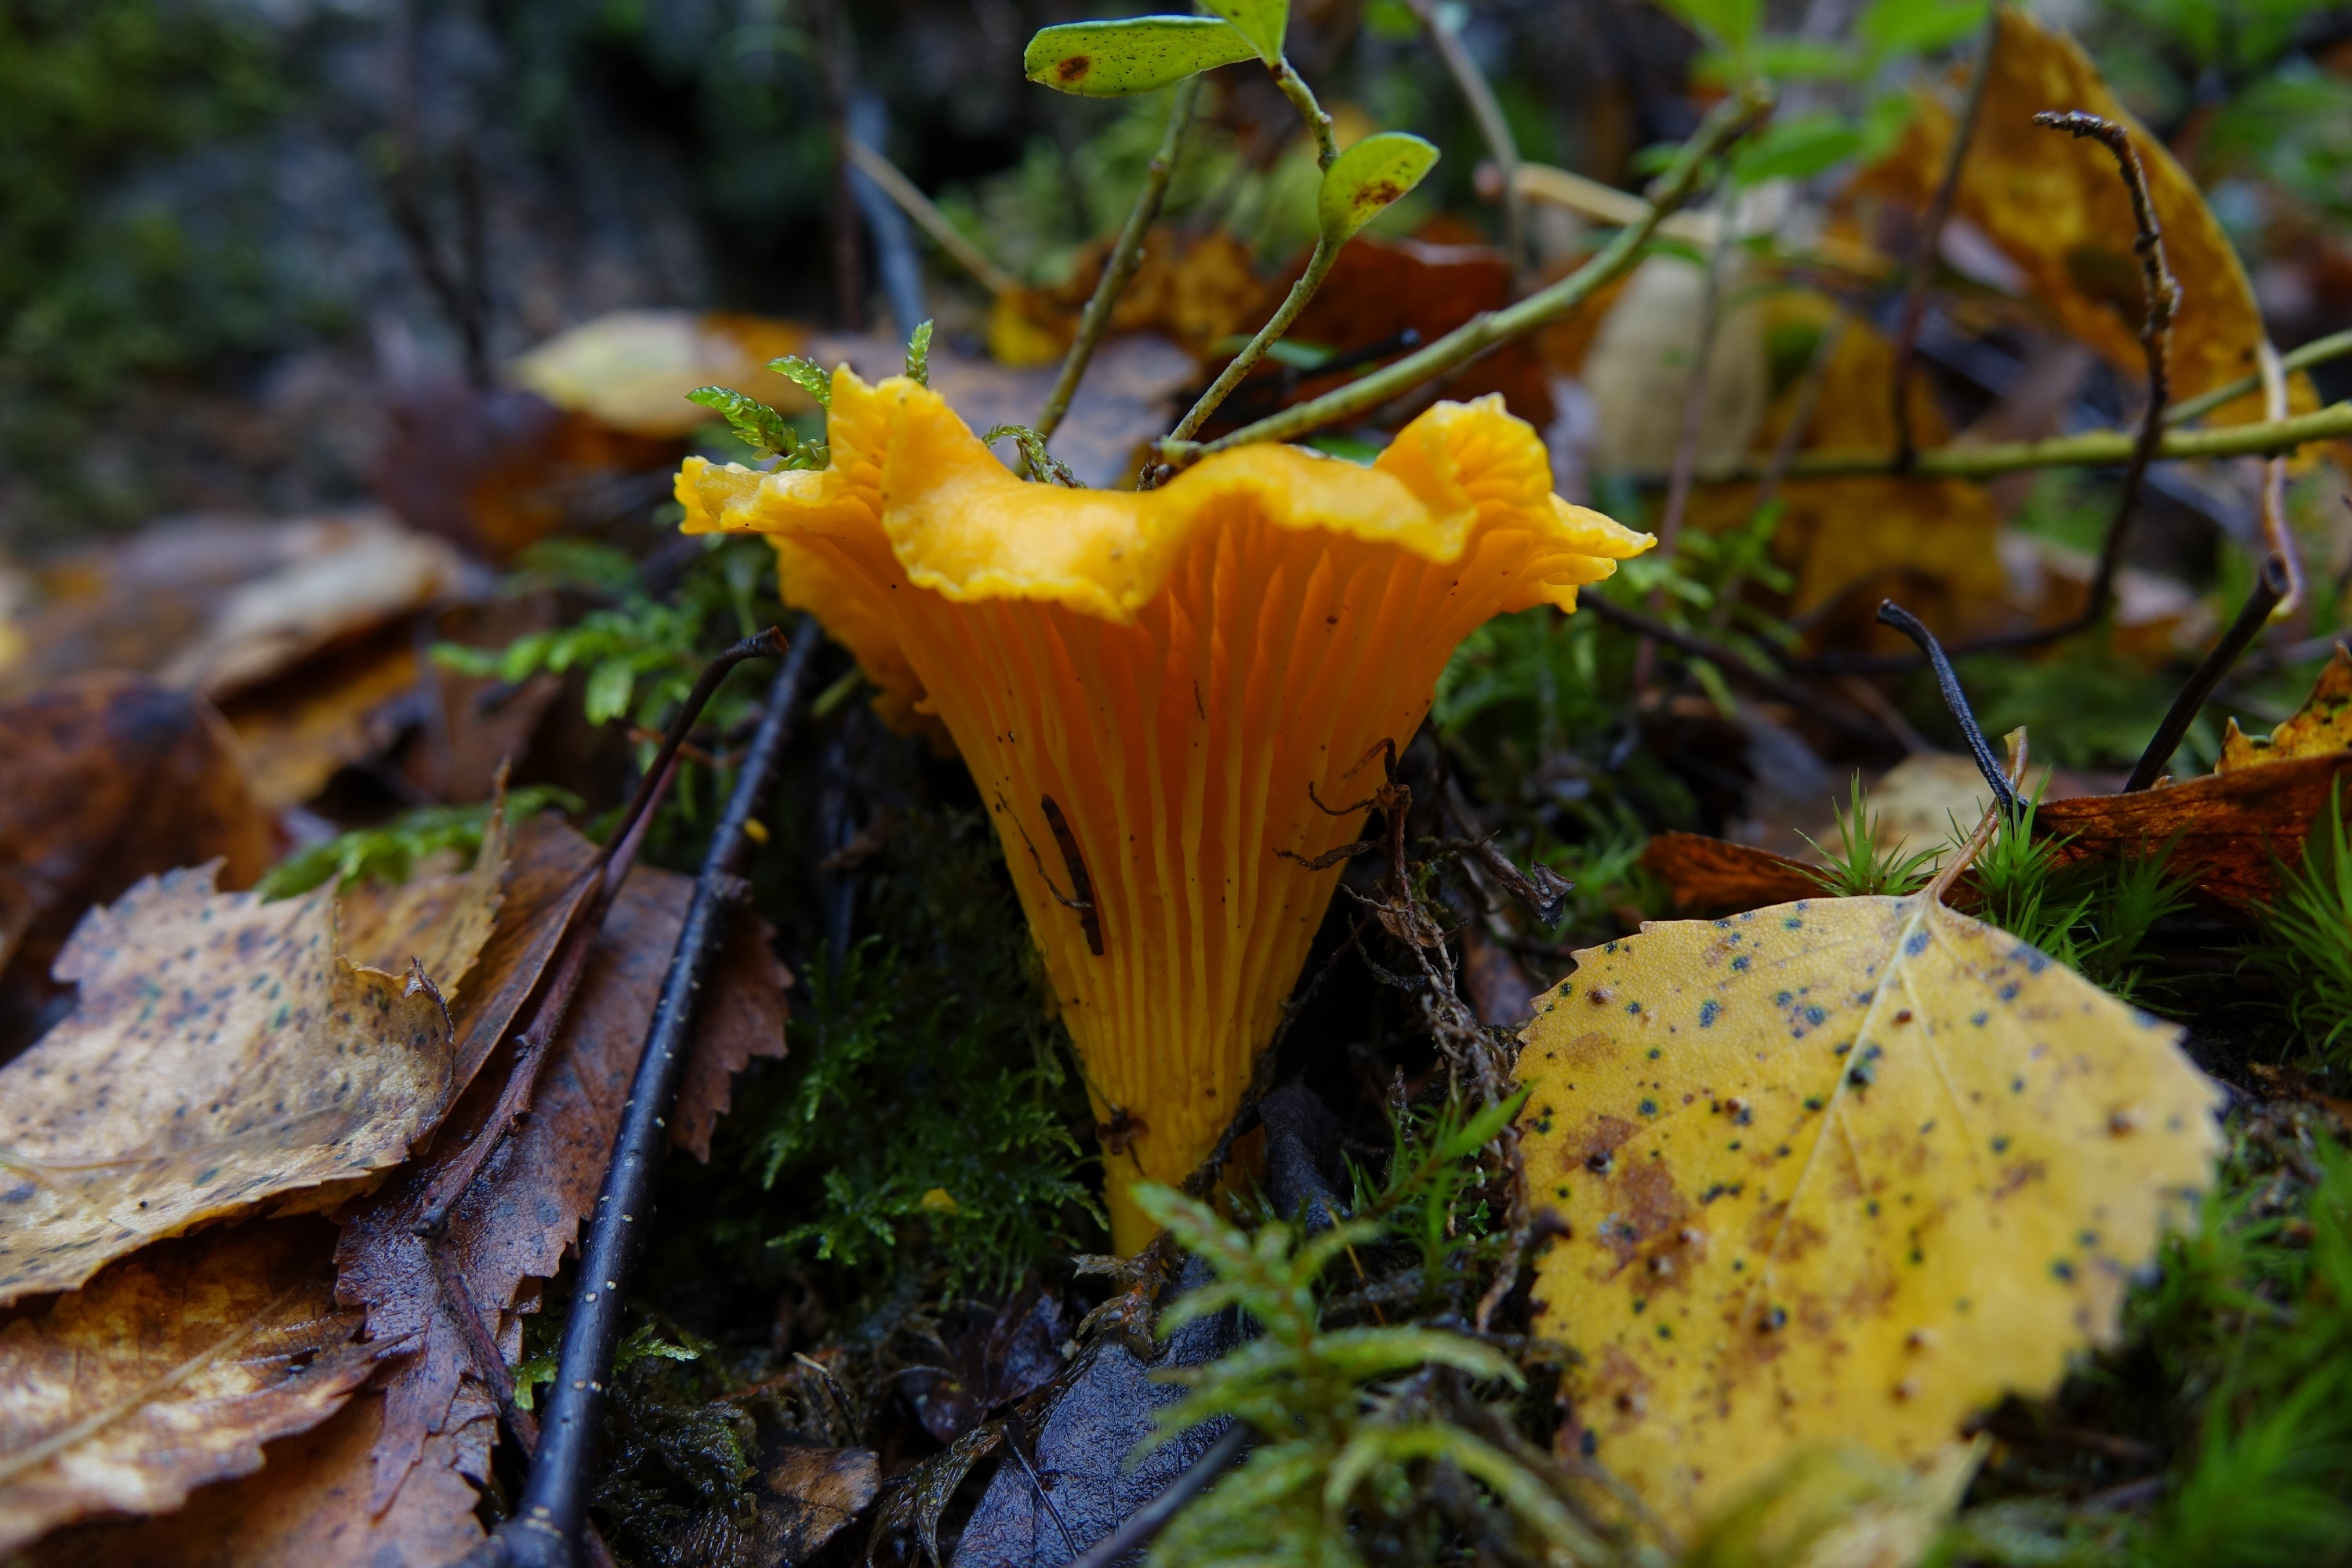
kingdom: Fungi
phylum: Basidiomycota
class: Agaricomycetes
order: Cantharellales
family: Hydnaceae
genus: Cantharellus
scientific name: Cantharellus cibarius
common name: Chanterelle
